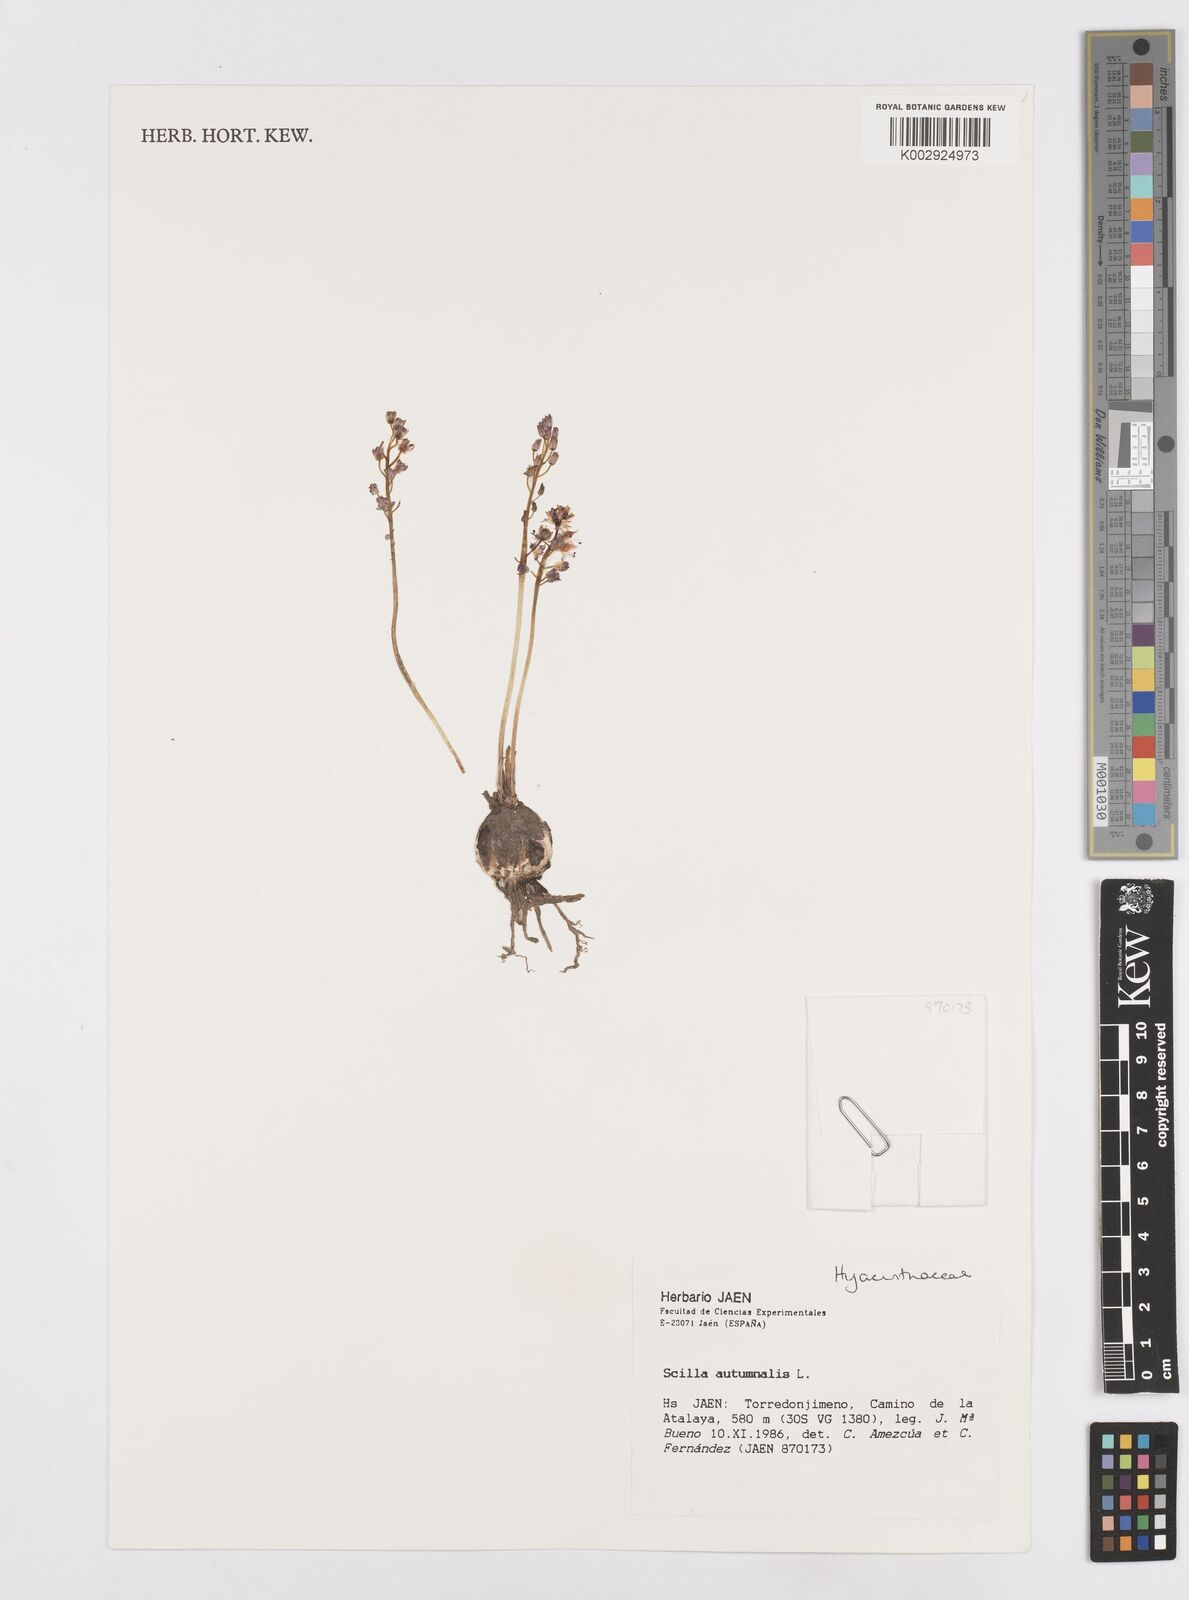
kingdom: Plantae
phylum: Tracheophyta
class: Liliopsida
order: Asparagales
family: Asparagaceae
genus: Prospero
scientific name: Prospero autumnale
